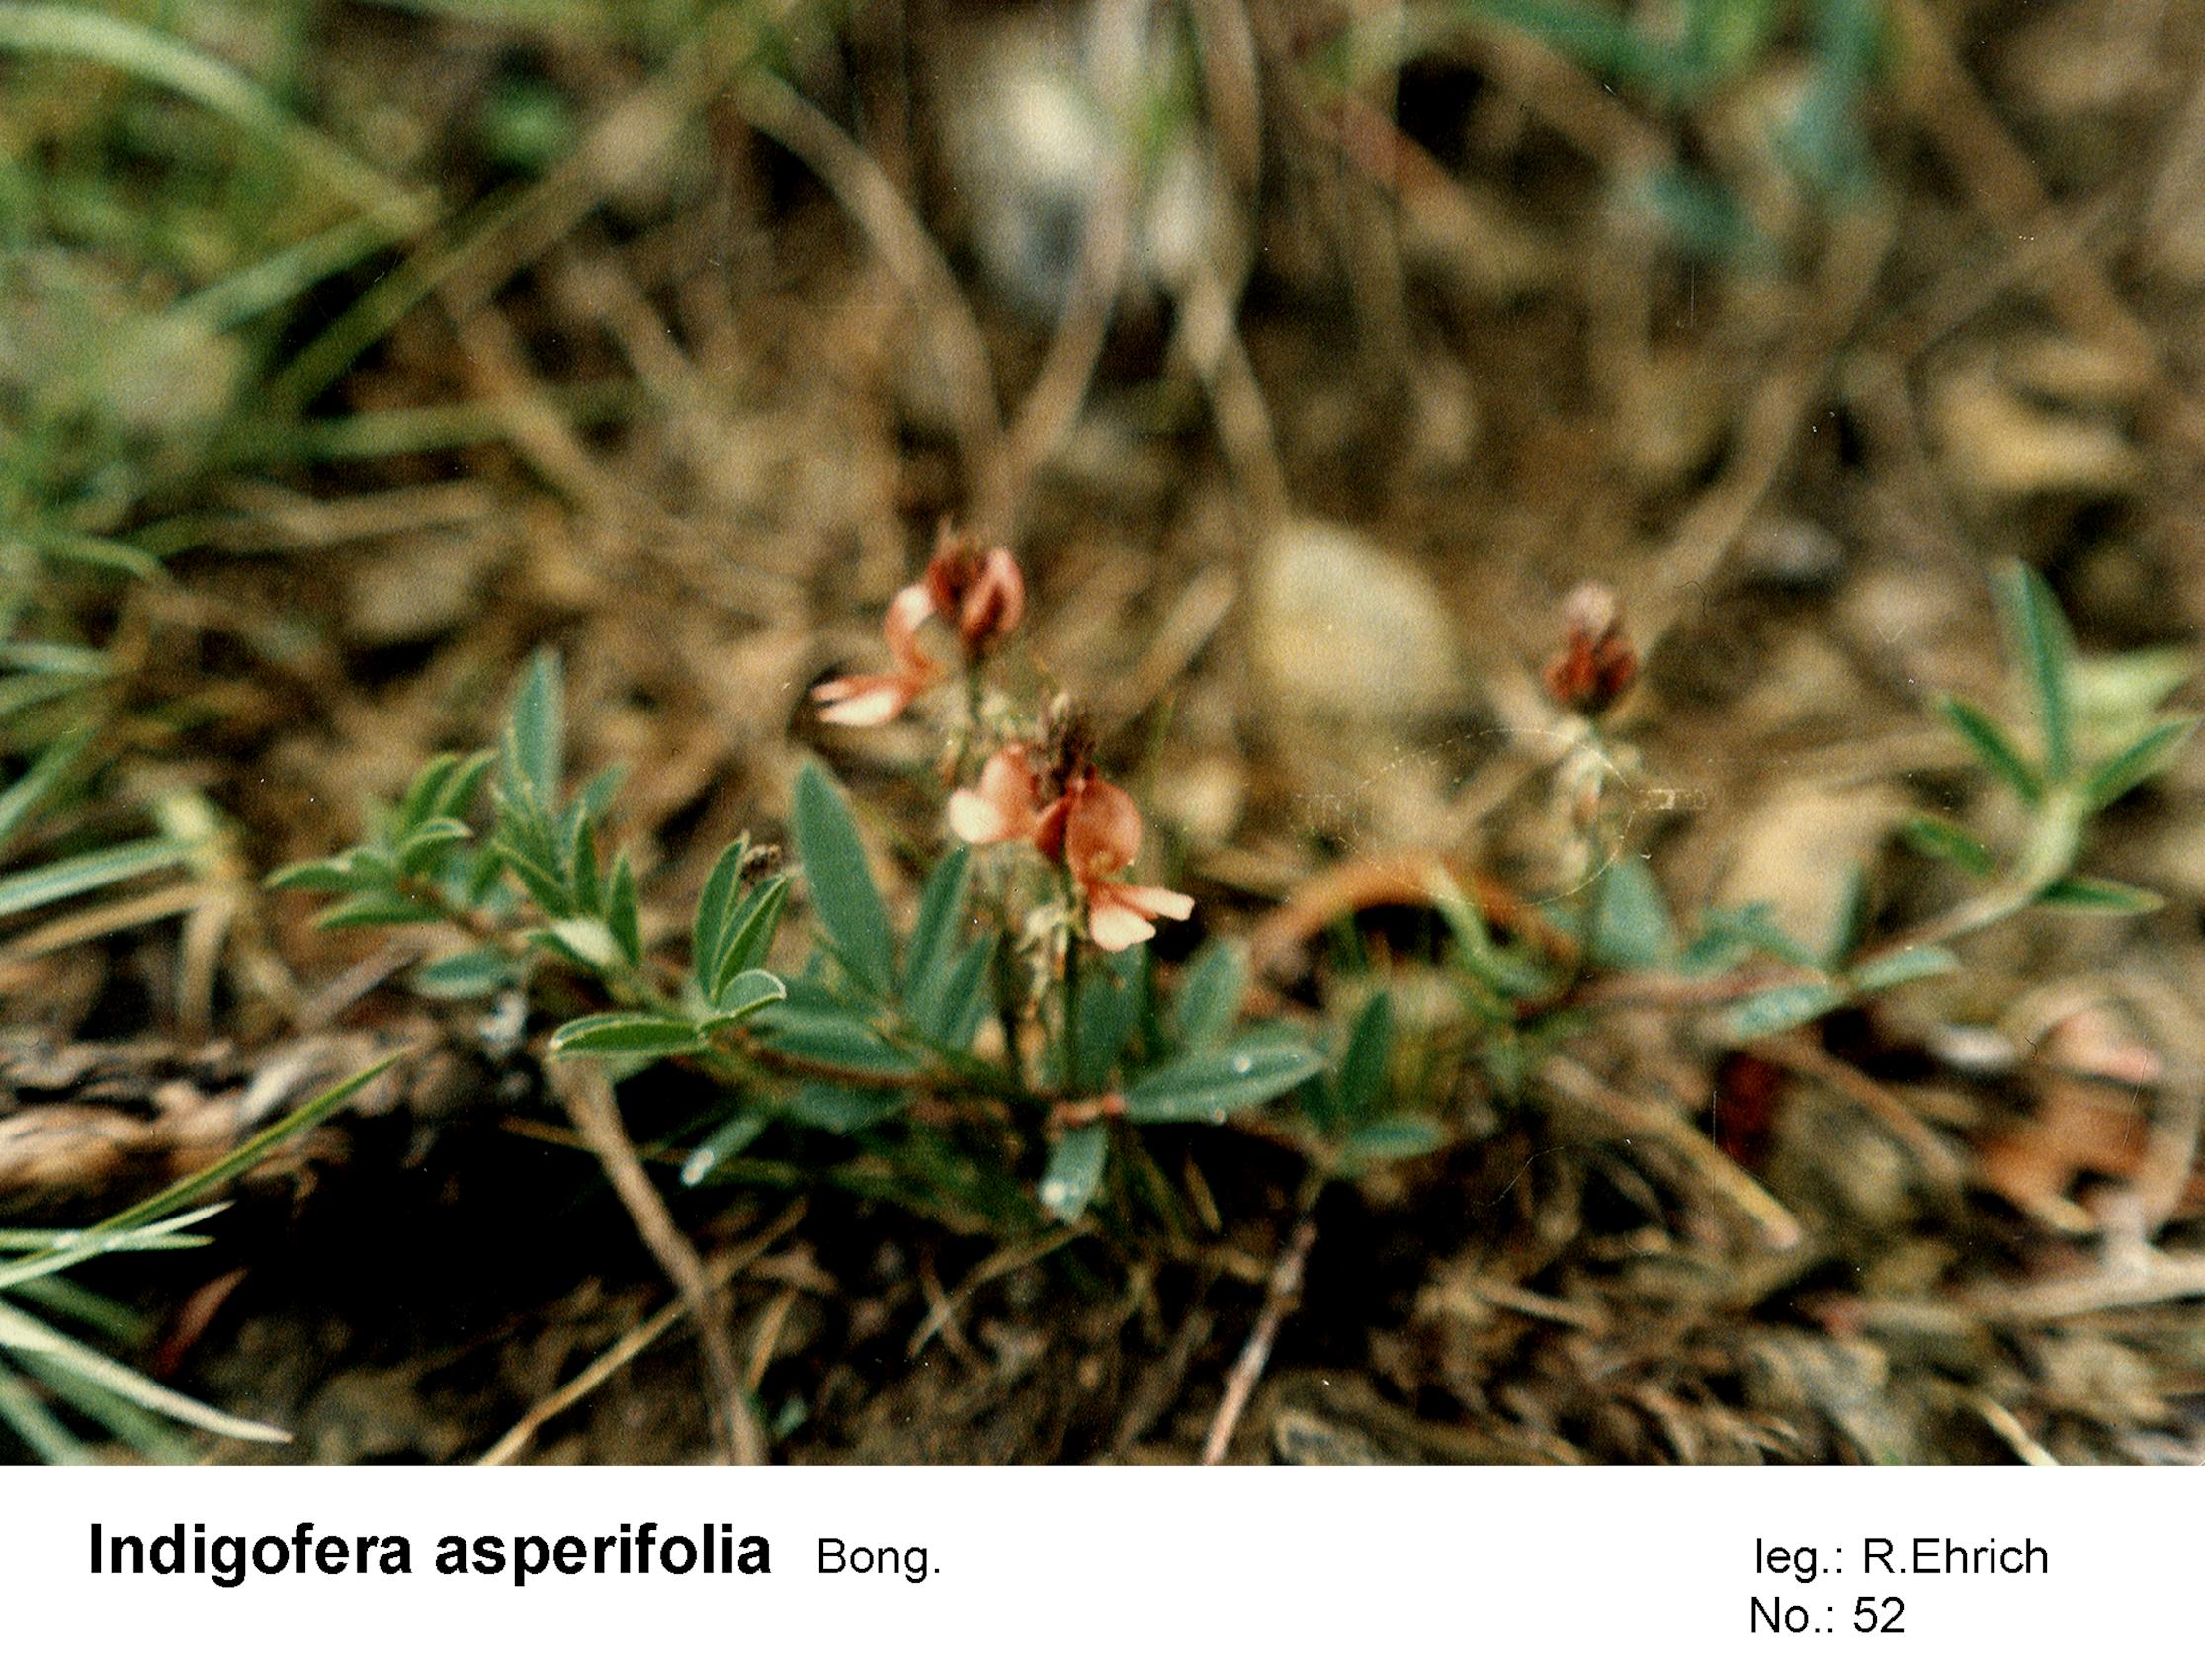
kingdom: Plantae
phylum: Tracheophyta
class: Magnoliopsida
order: Fabales
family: Fabaceae
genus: Indigofera
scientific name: Indigofera asperifolia
